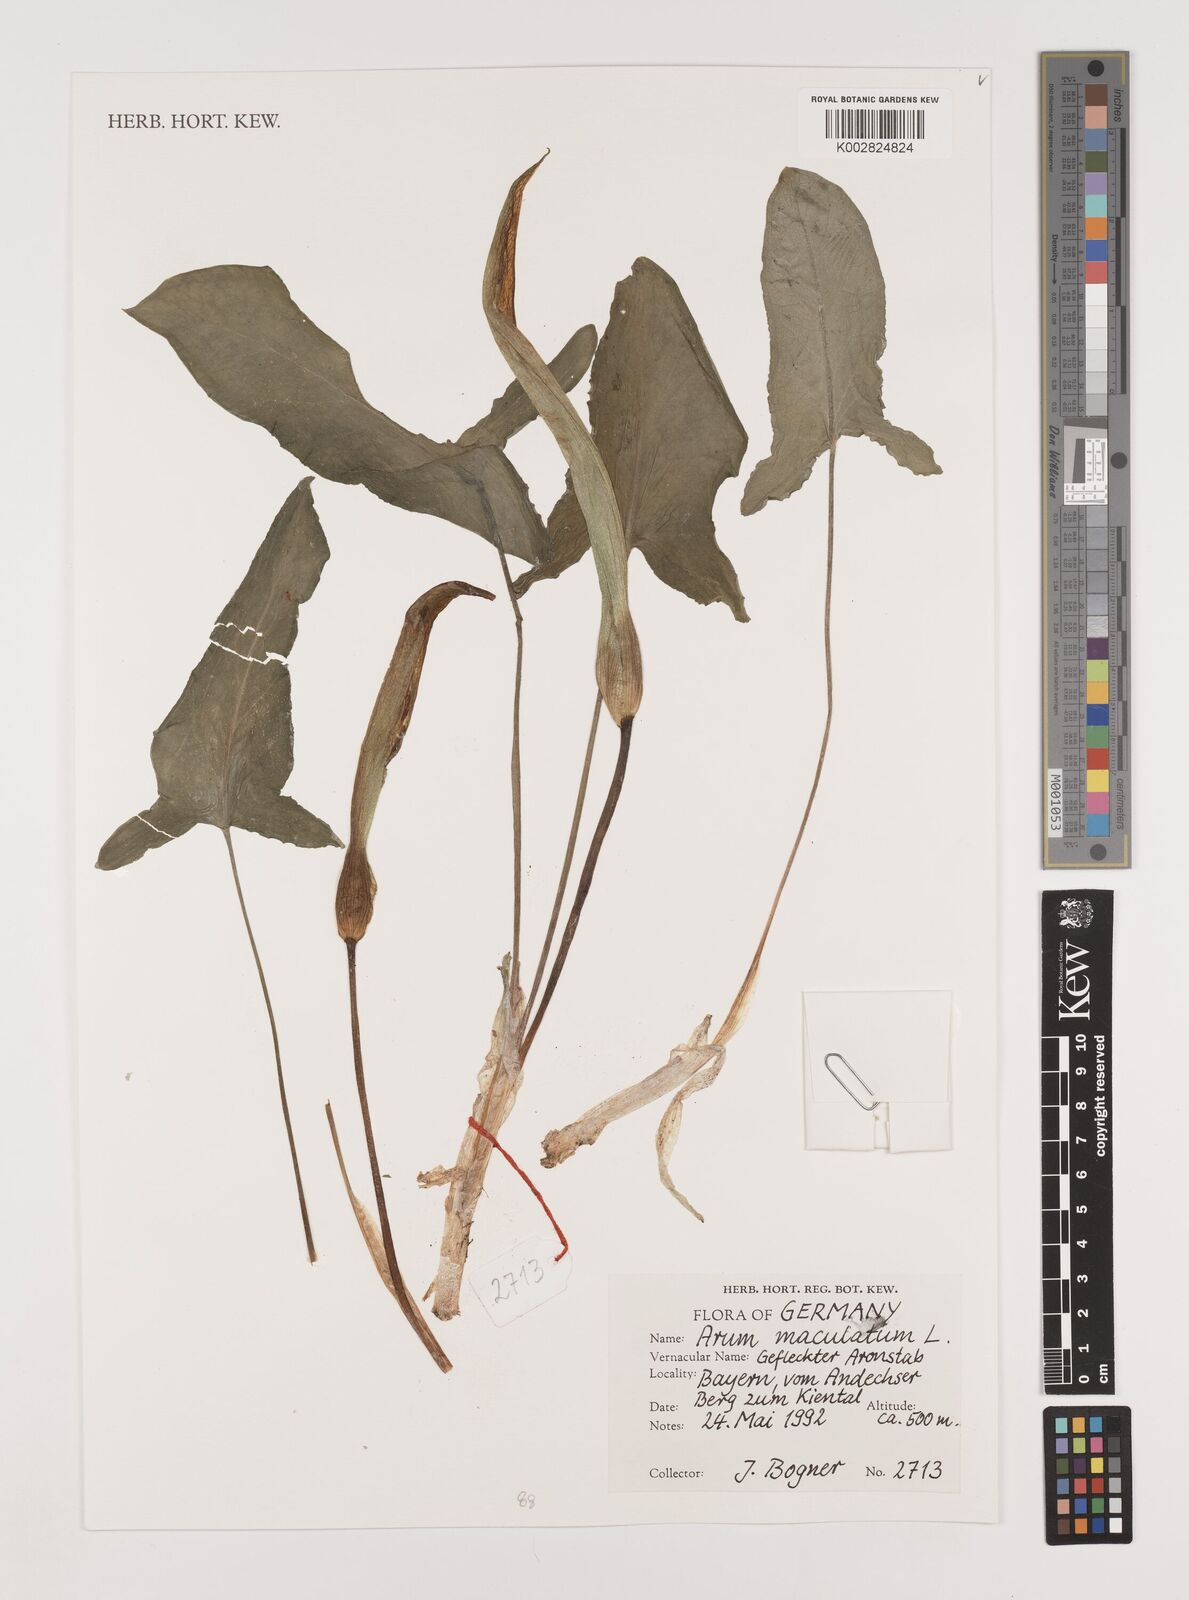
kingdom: Plantae
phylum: Tracheophyta
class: Liliopsida
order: Alismatales
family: Araceae
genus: Arum
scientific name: Arum maculatum
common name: Lords-and-ladies
